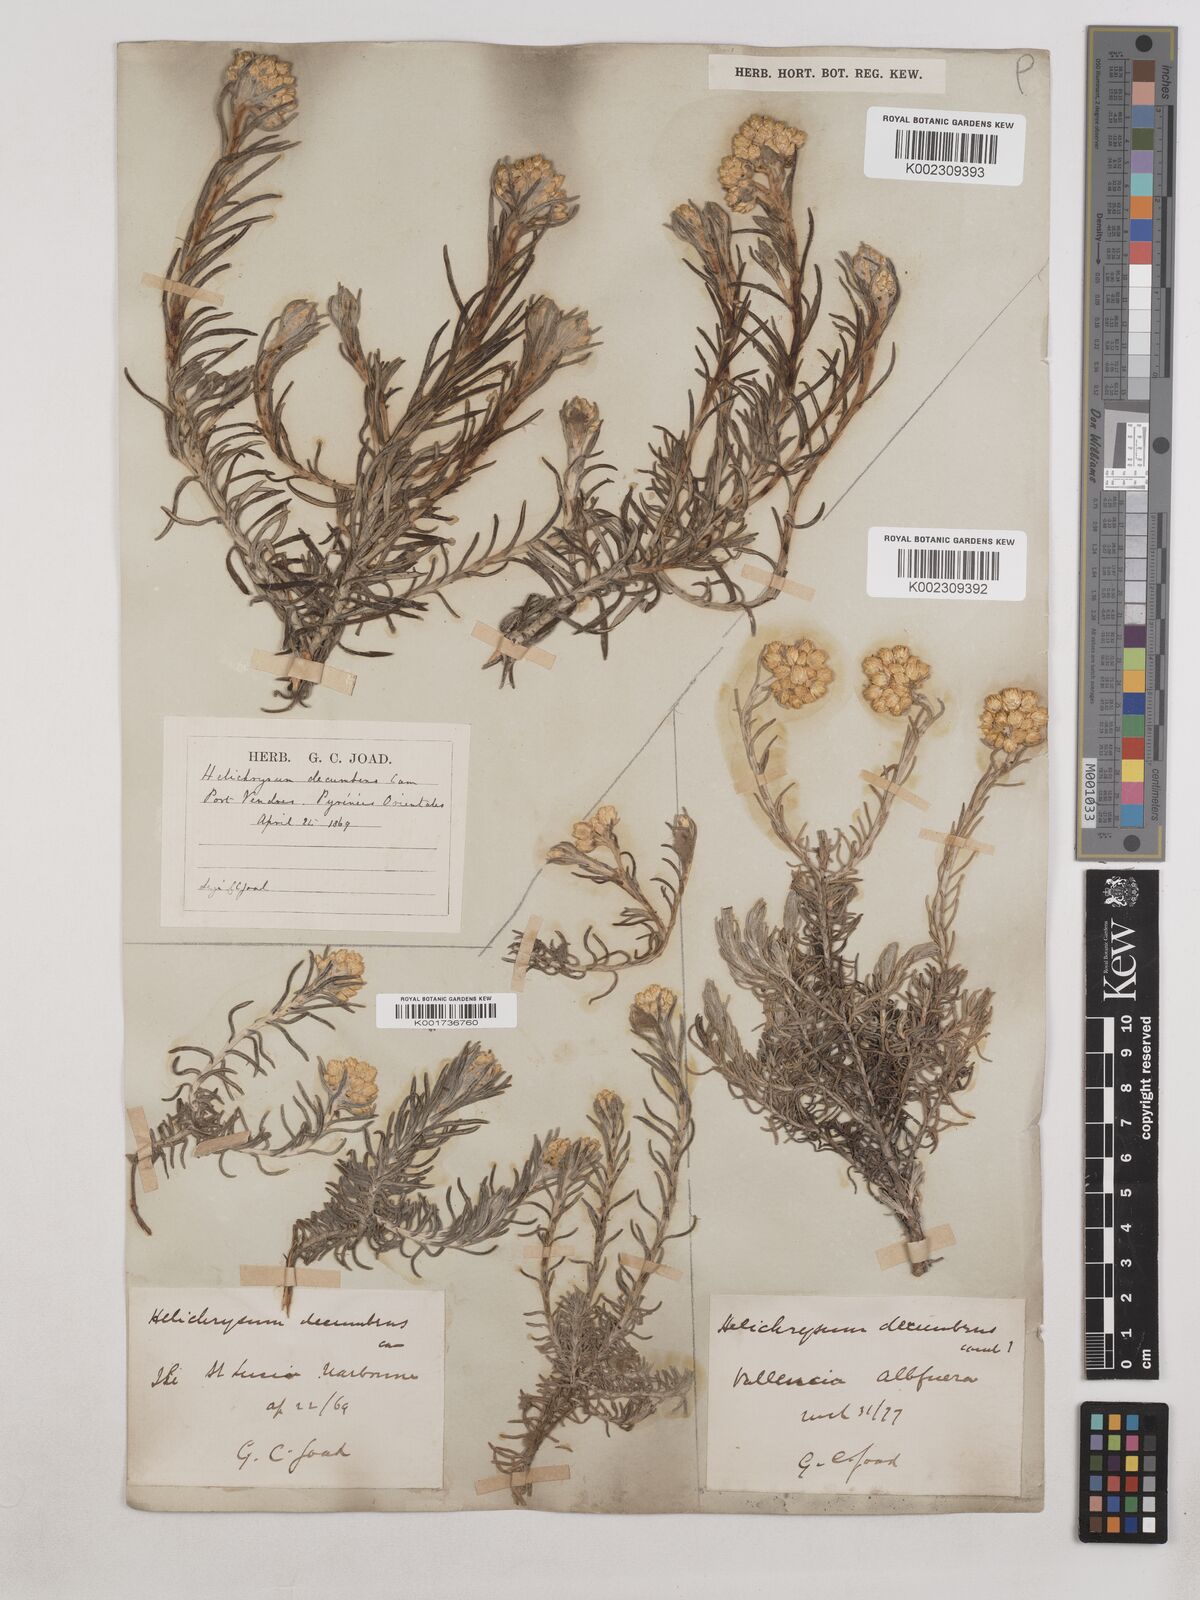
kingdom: Plantae
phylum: Tracheophyta
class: Magnoliopsida
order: Asterales
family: Asteraceae
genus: Helichrysum
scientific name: Helichrysum stoechas
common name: Goldilocks
